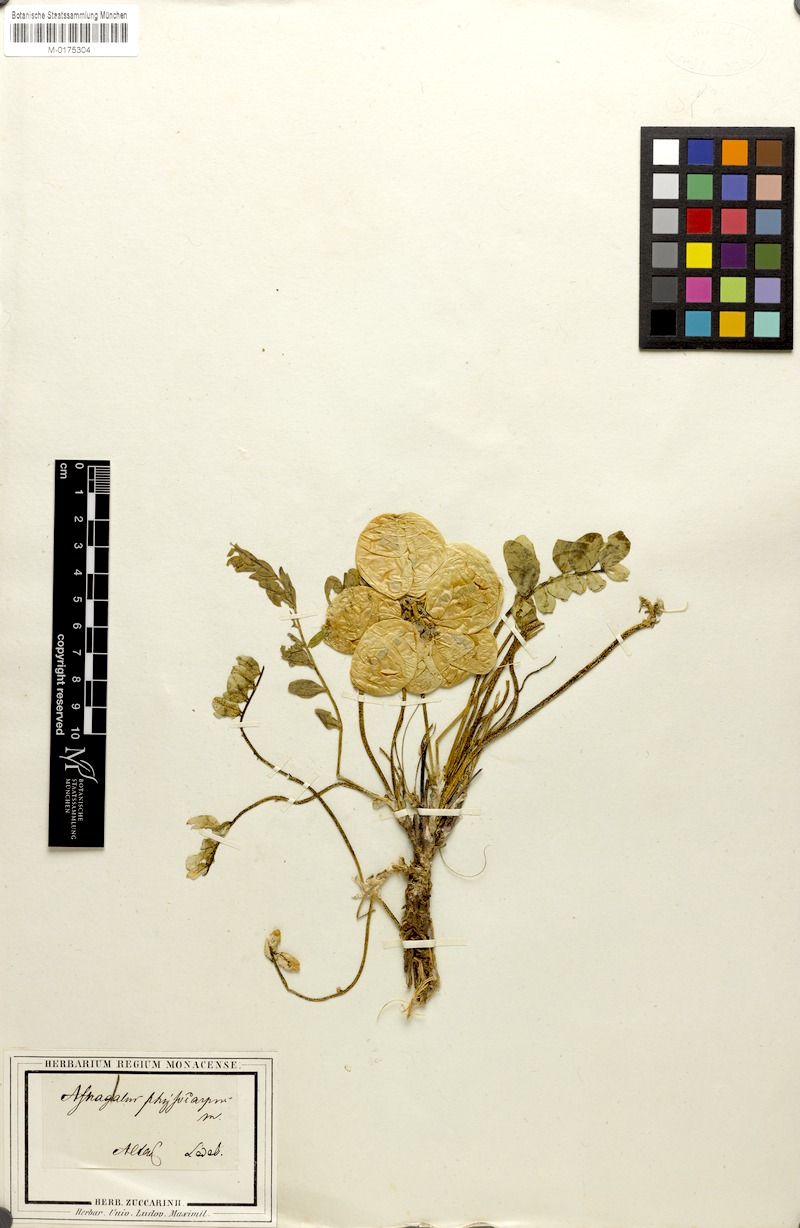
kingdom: Plantae
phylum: Tracheophyta
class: Magnoliopsida
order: Fabales
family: Fabaceae
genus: Astragalus
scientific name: Astragalus physocarpus
